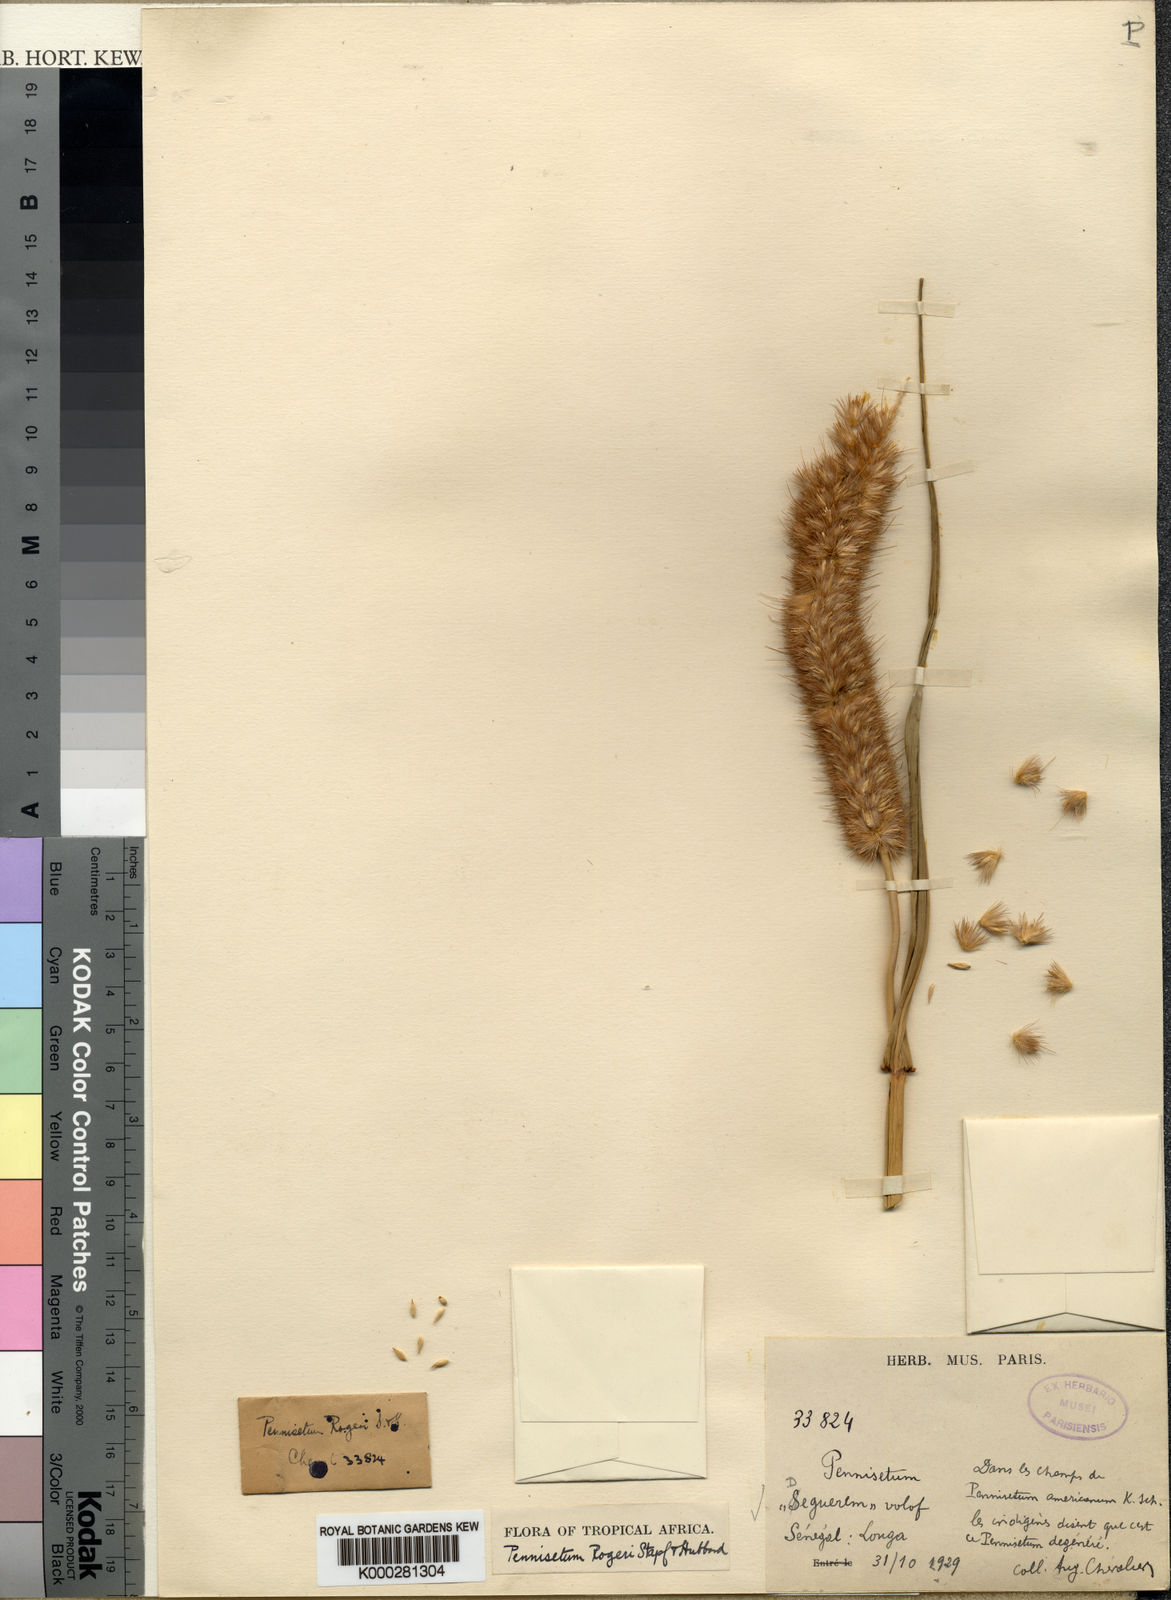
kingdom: Plantae
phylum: Tracheophyta
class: Liliopsida
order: Poales
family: Poaceae
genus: Cenchrus
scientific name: Cenchrus violaceus
